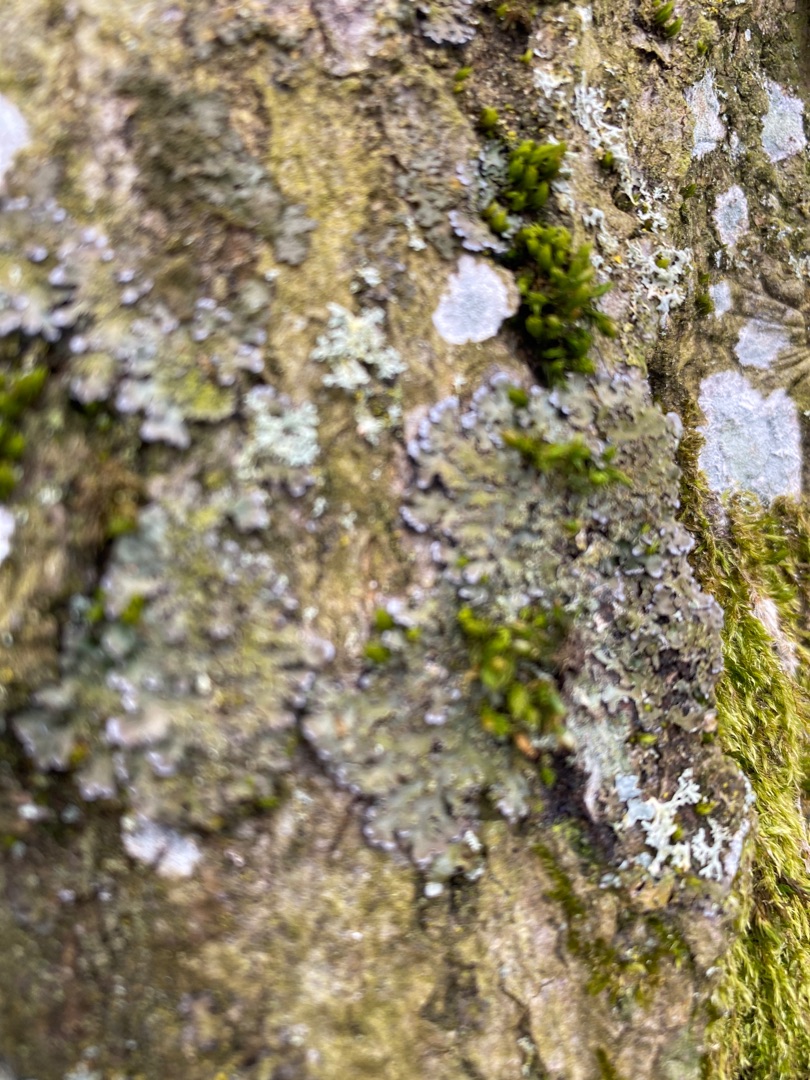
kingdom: Fungi
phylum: Ascomycota
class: Lecanoromycetes
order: Caliciales
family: Physciaceae
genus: Physconia
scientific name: Physconia
